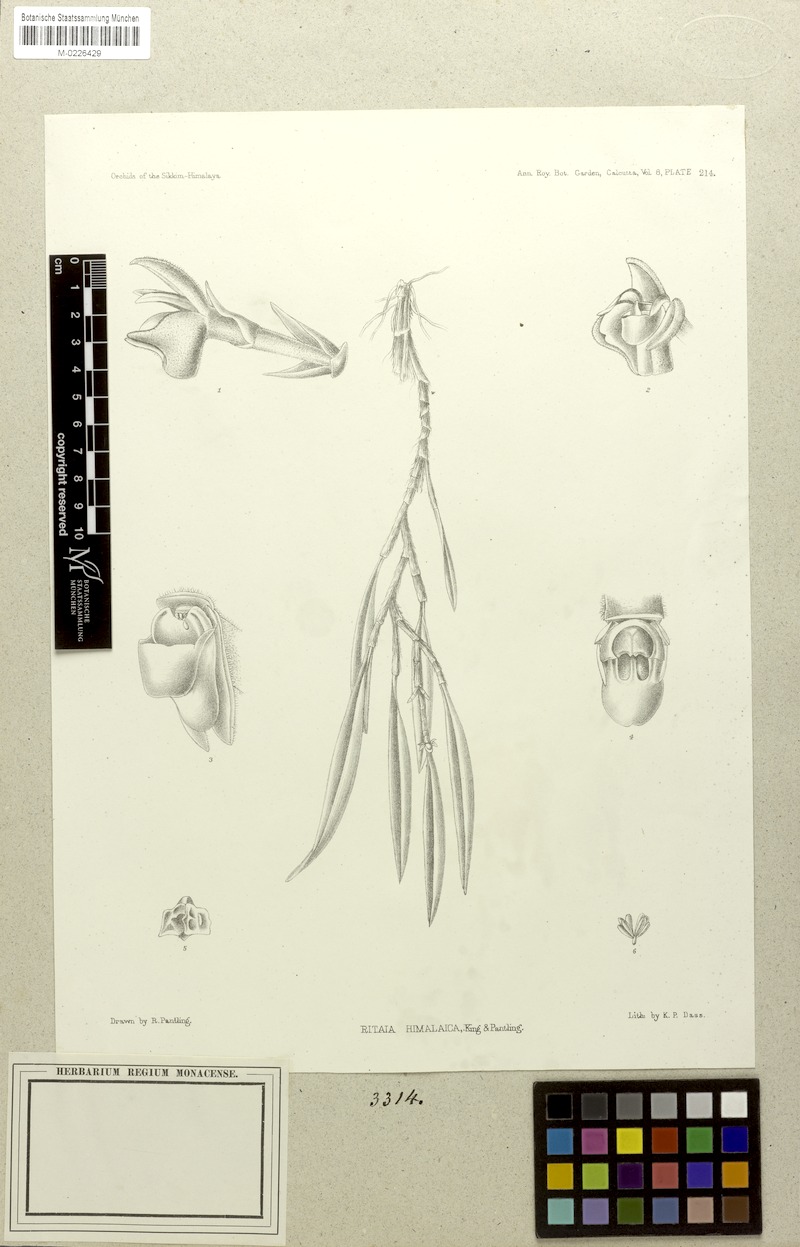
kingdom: Plantae
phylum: Tracheophyta
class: Liliopsida
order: Asparagales
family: Orchidaceae
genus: Ceratostylis
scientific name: Ceratostylis himalaica
